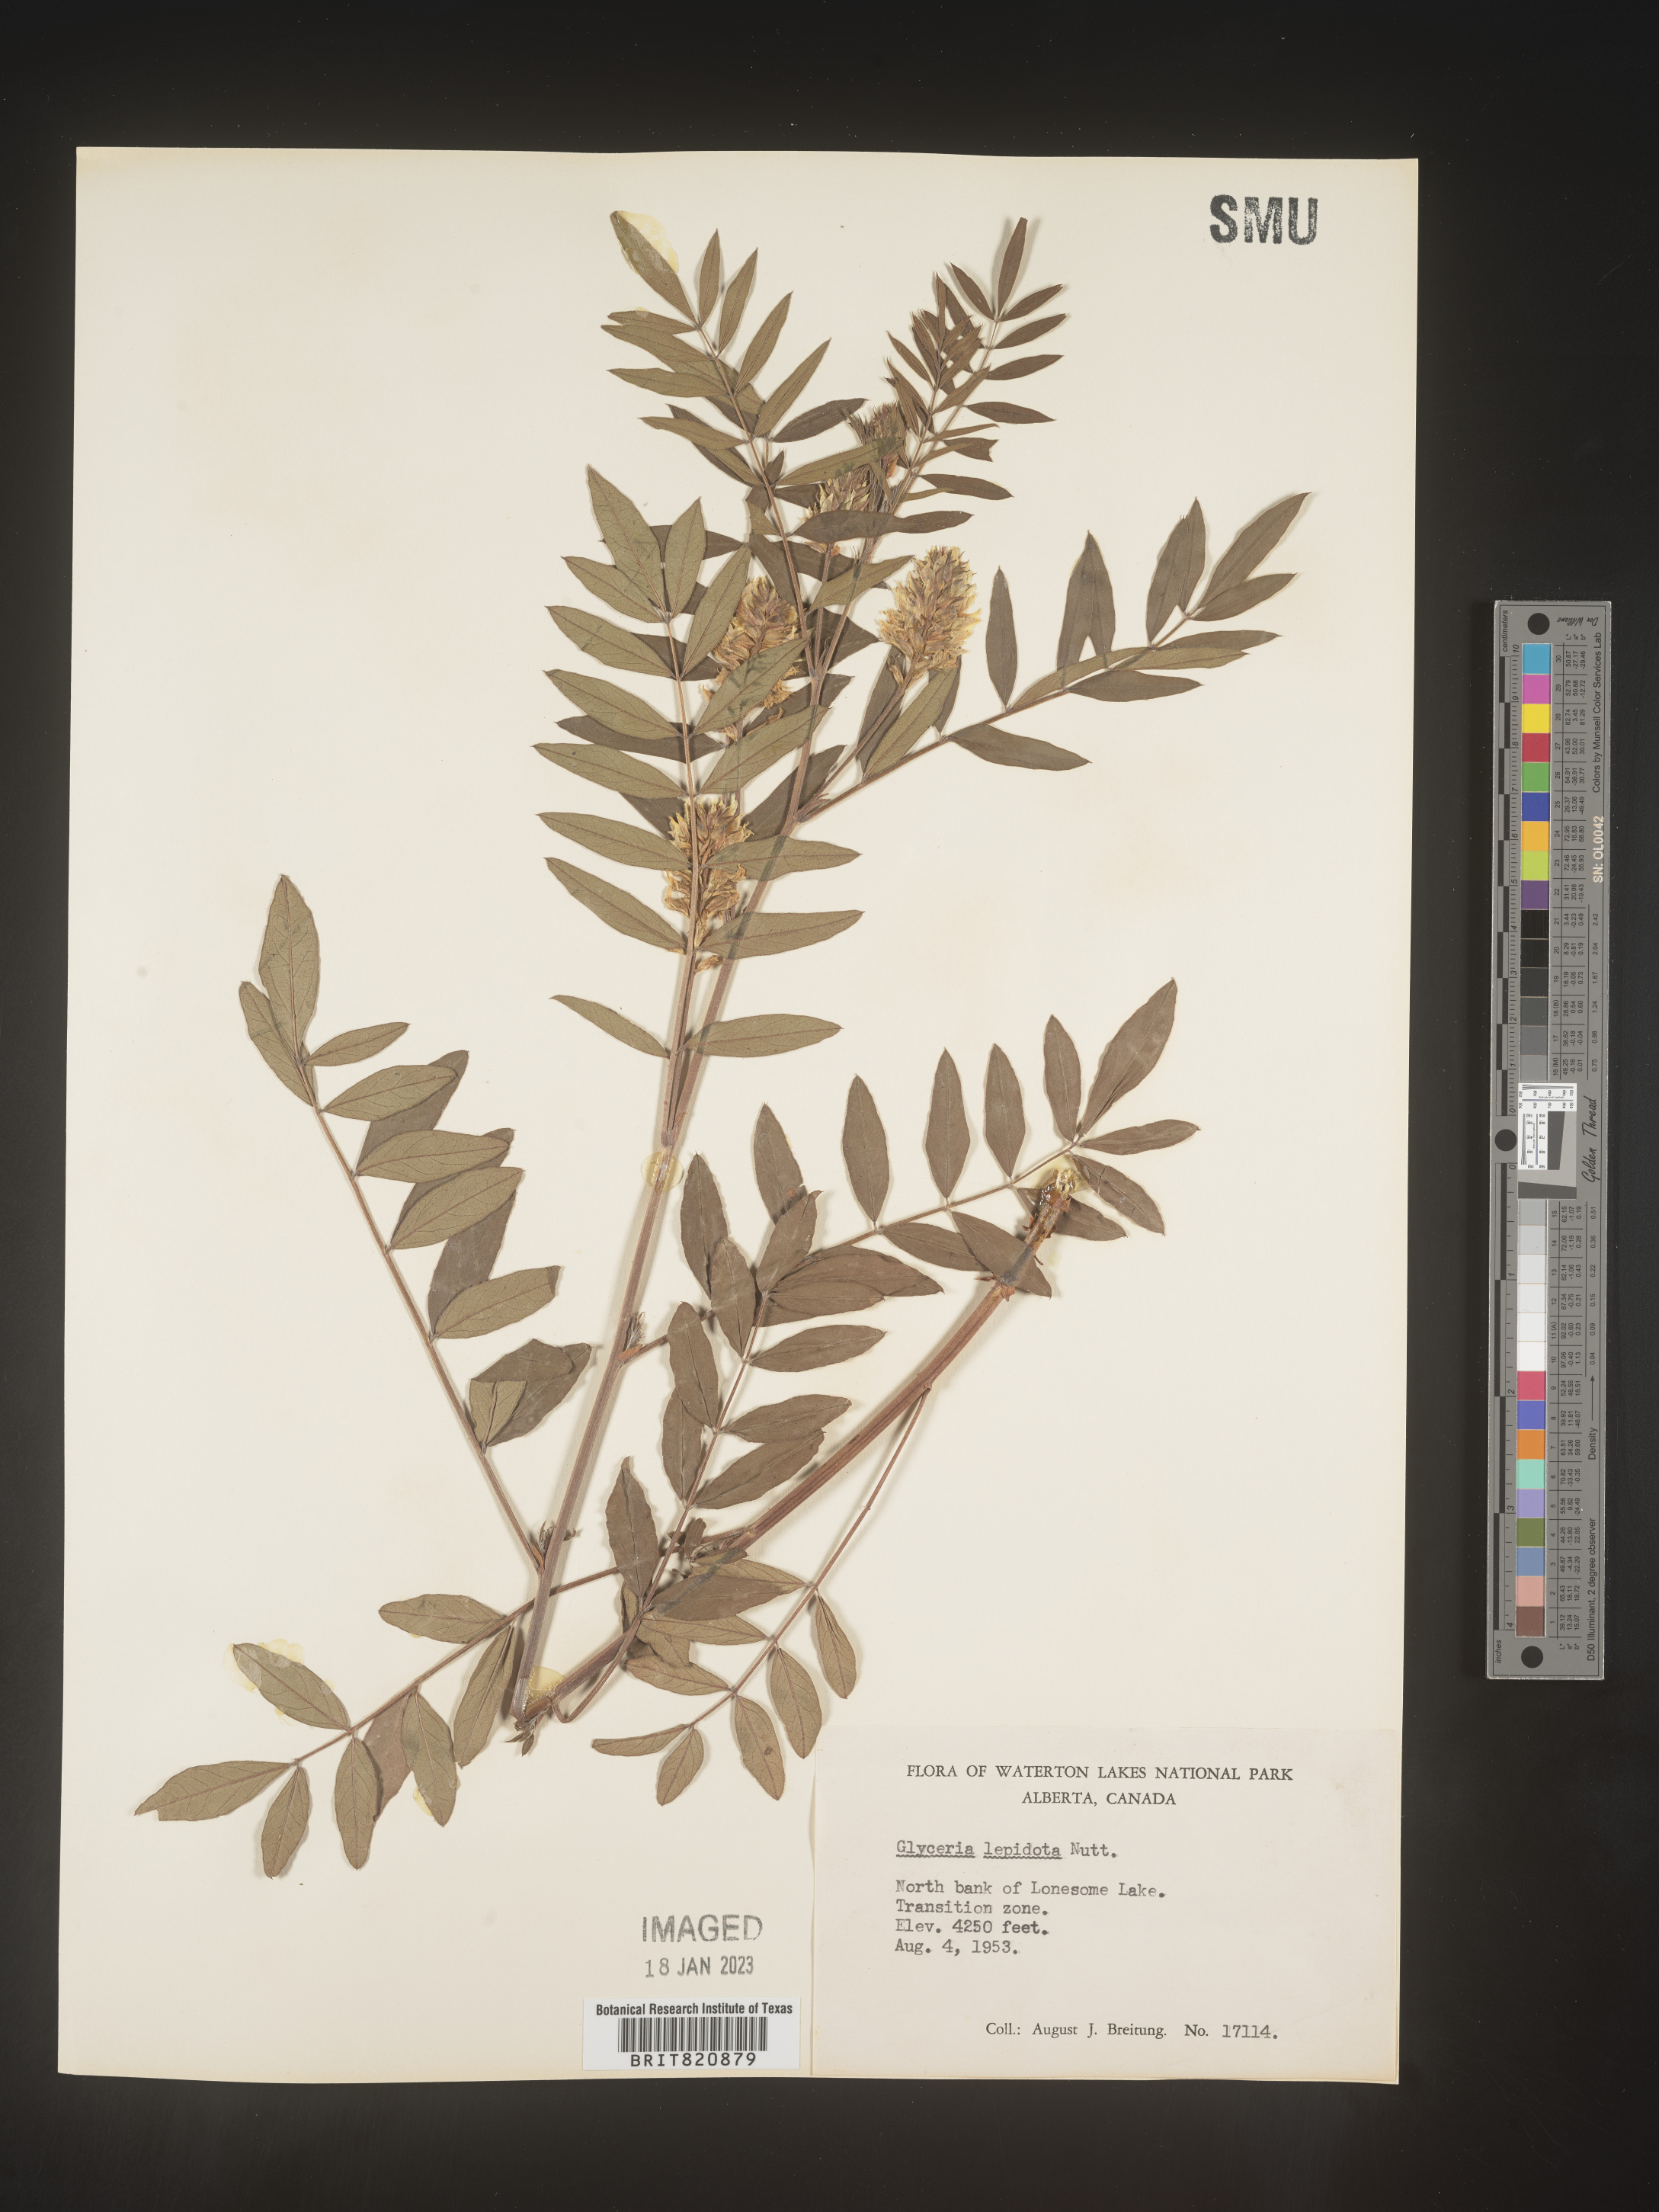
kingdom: Plantae
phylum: Tracheophyta
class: Magnoliopsida
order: Fabales
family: Fabaceae
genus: Glycyrrhiza
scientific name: Glycyrrhiza lepidota
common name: American liquorice
